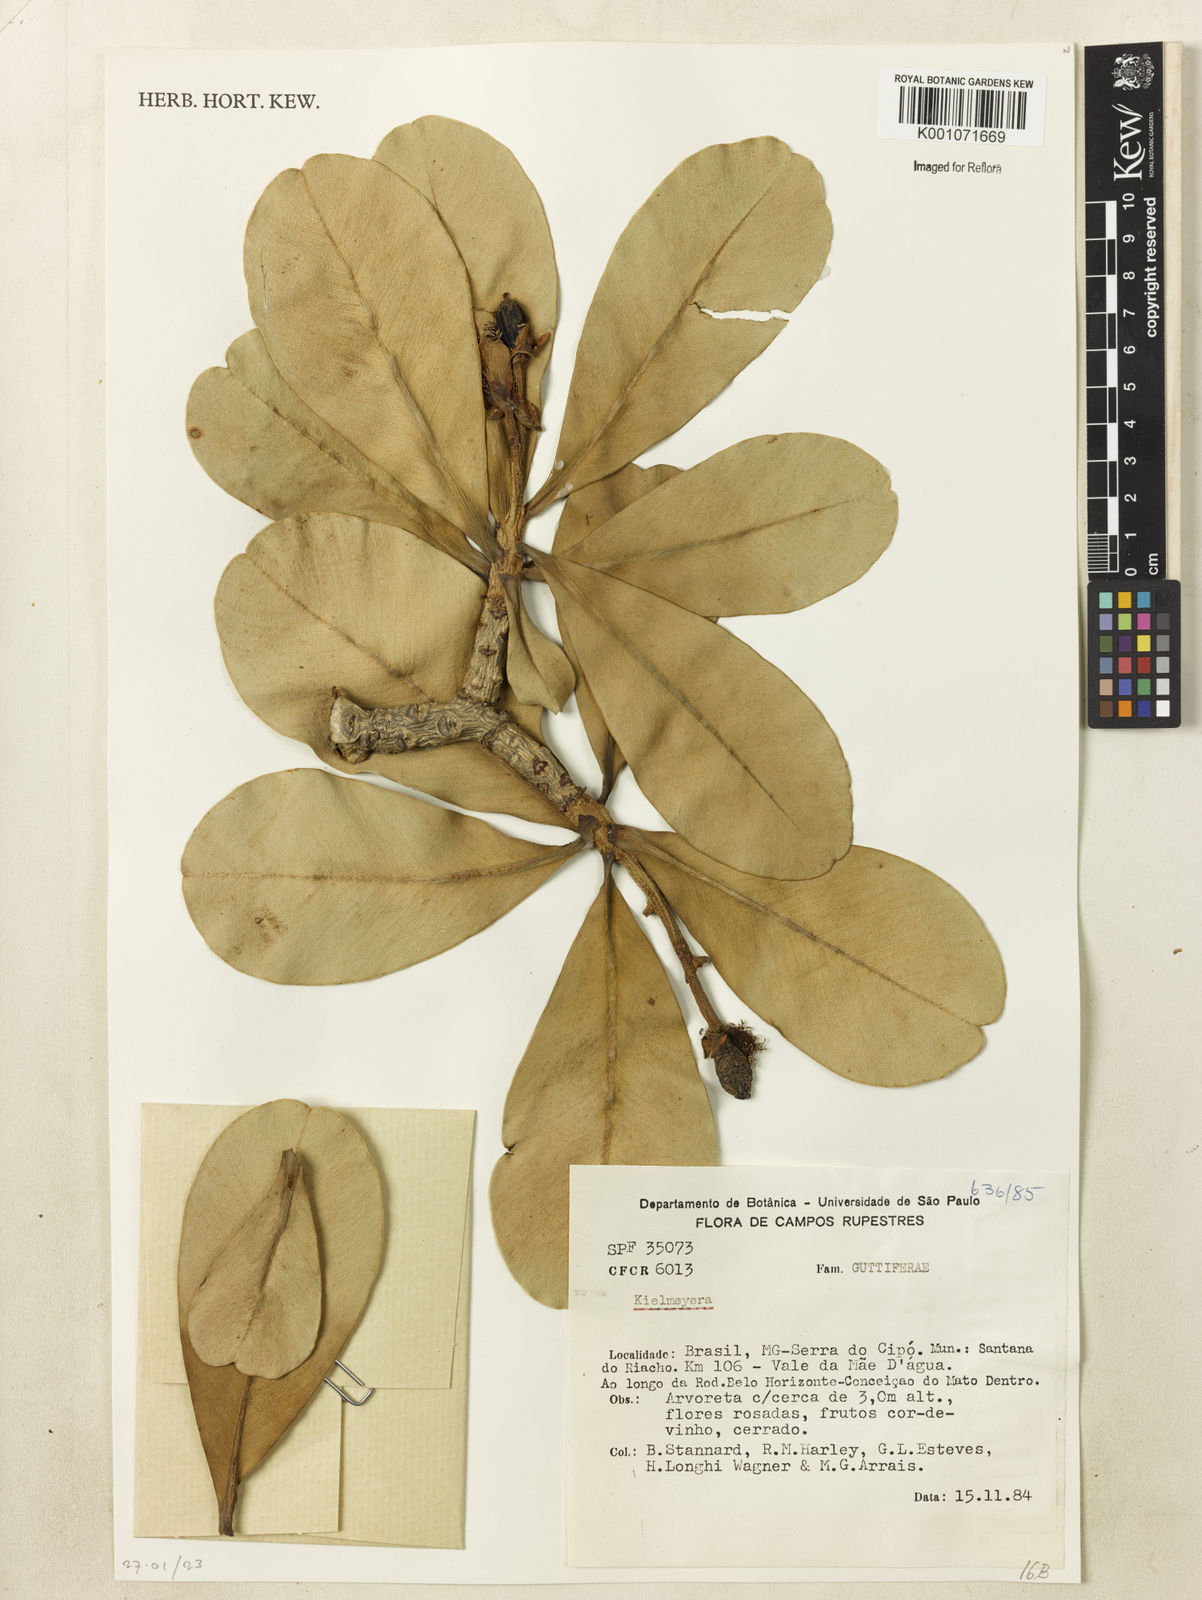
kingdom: Plantae
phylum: Tracheophyta
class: Magnoliopsida
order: Malpighiales
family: Calophyllaceae
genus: Kielmeyera
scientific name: Kielmeyera
